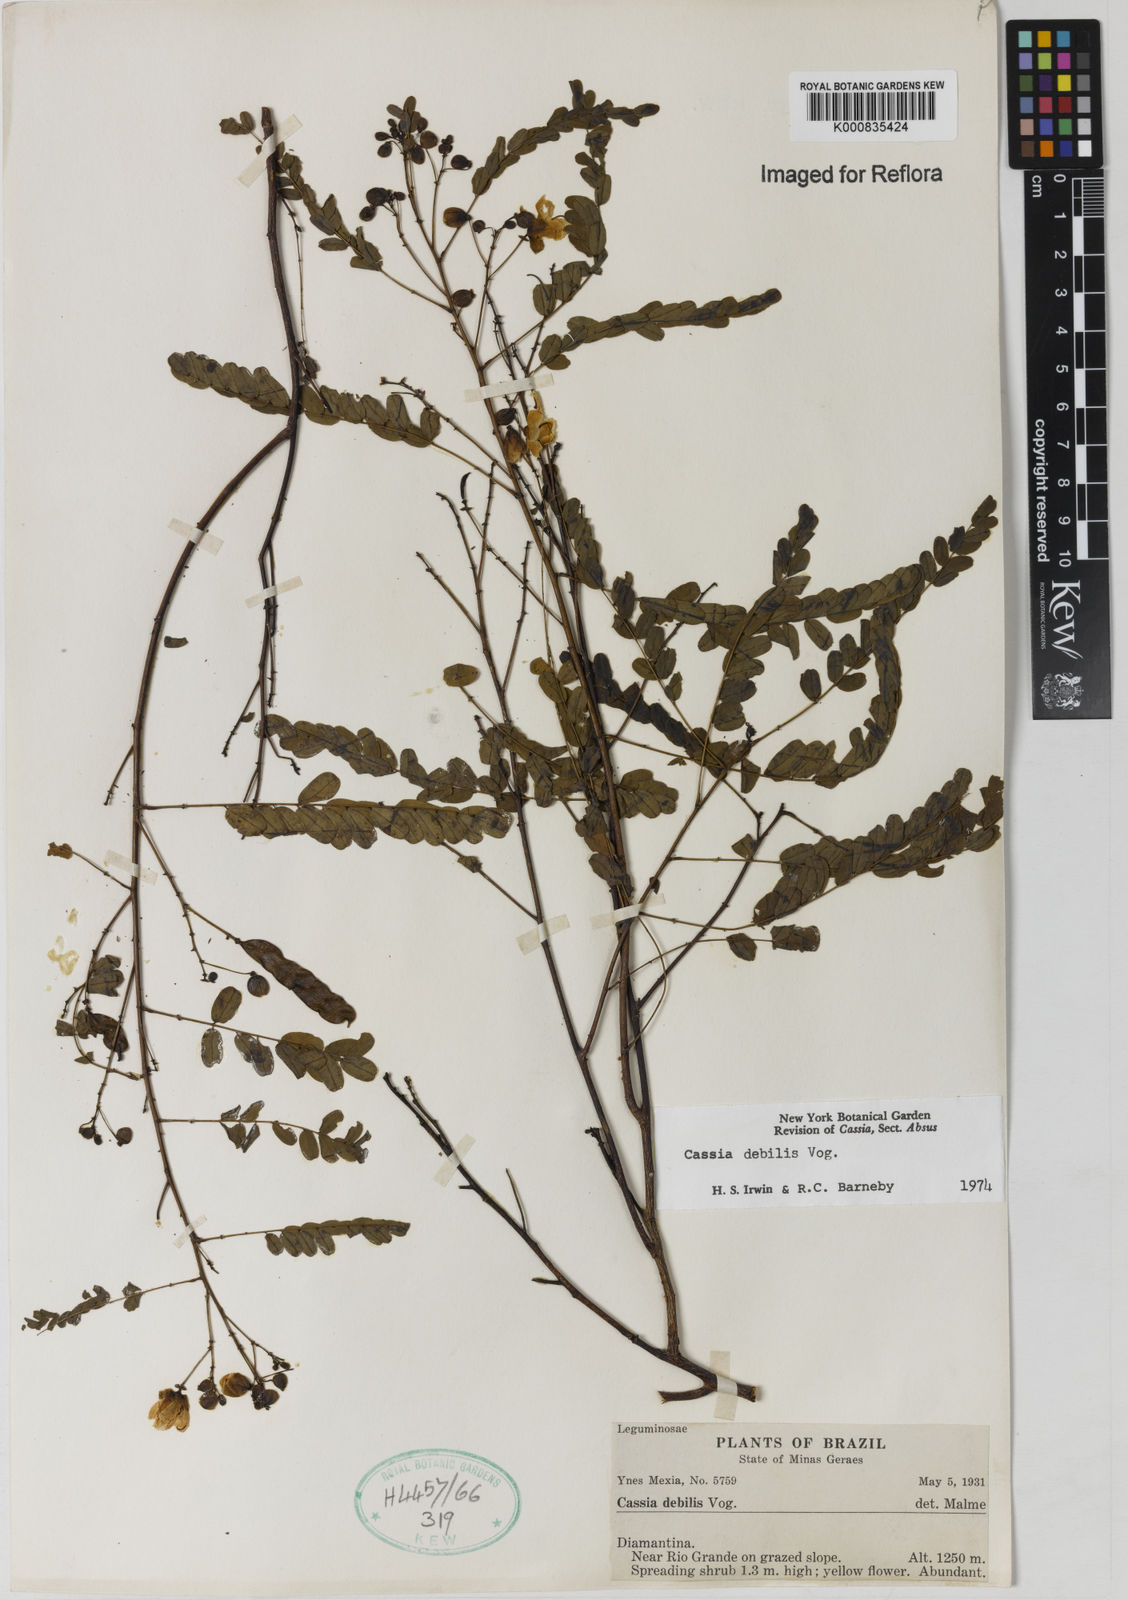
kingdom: Plantae
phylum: Tracheophyta
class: Magnoliopsida
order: Fabales
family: Fabaceae
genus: Chamaecrista
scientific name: Chamaecrista debilis
